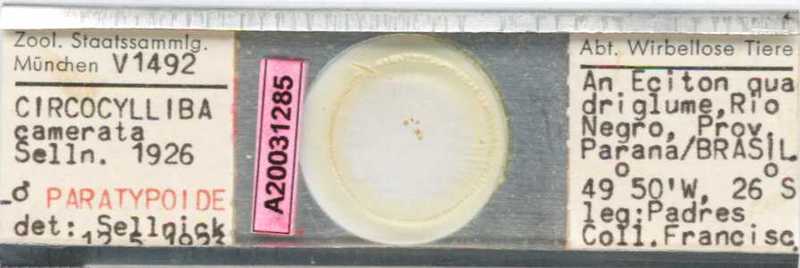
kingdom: Animalia
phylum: Arthropoda
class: Arachnida
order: Mesostigmata
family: Circocyllibamidae
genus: Circocylliba
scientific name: Circocylliba
